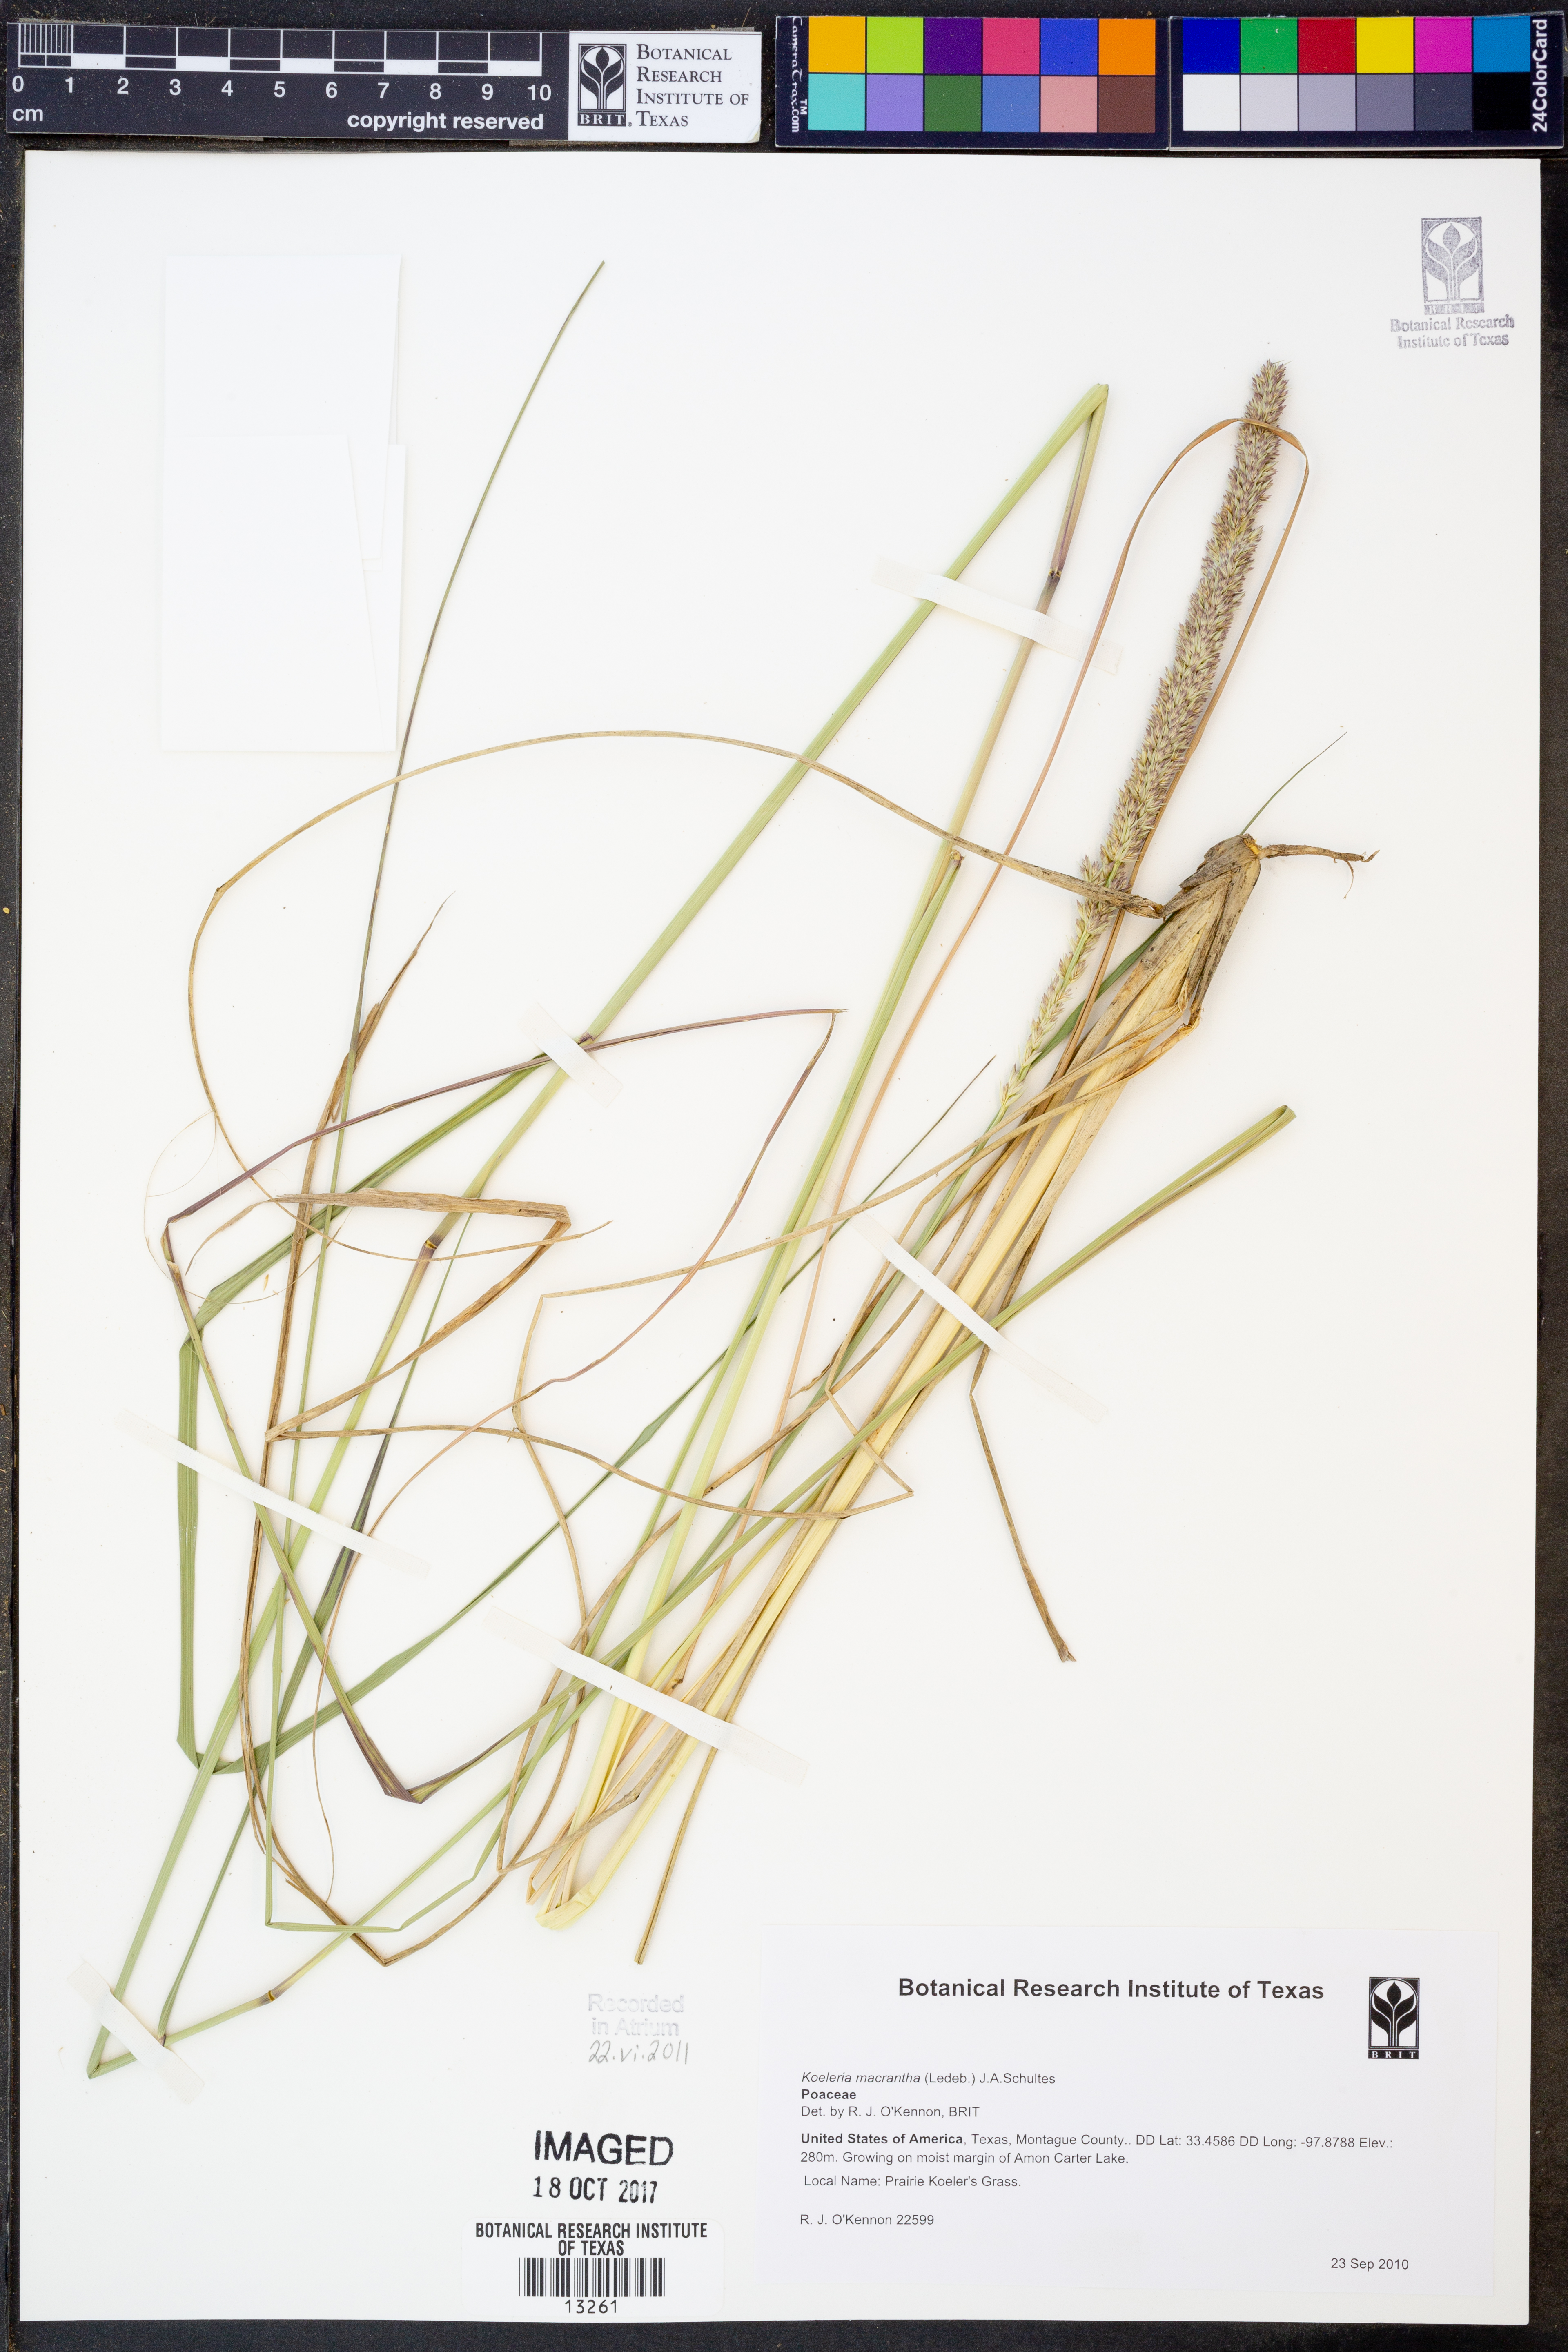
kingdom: Plantae
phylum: Tracheophyta
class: Liliopsida
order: Poales
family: Poaceae
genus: Koeleria
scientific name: Koeleria macrantha
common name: Crested hair-grass
